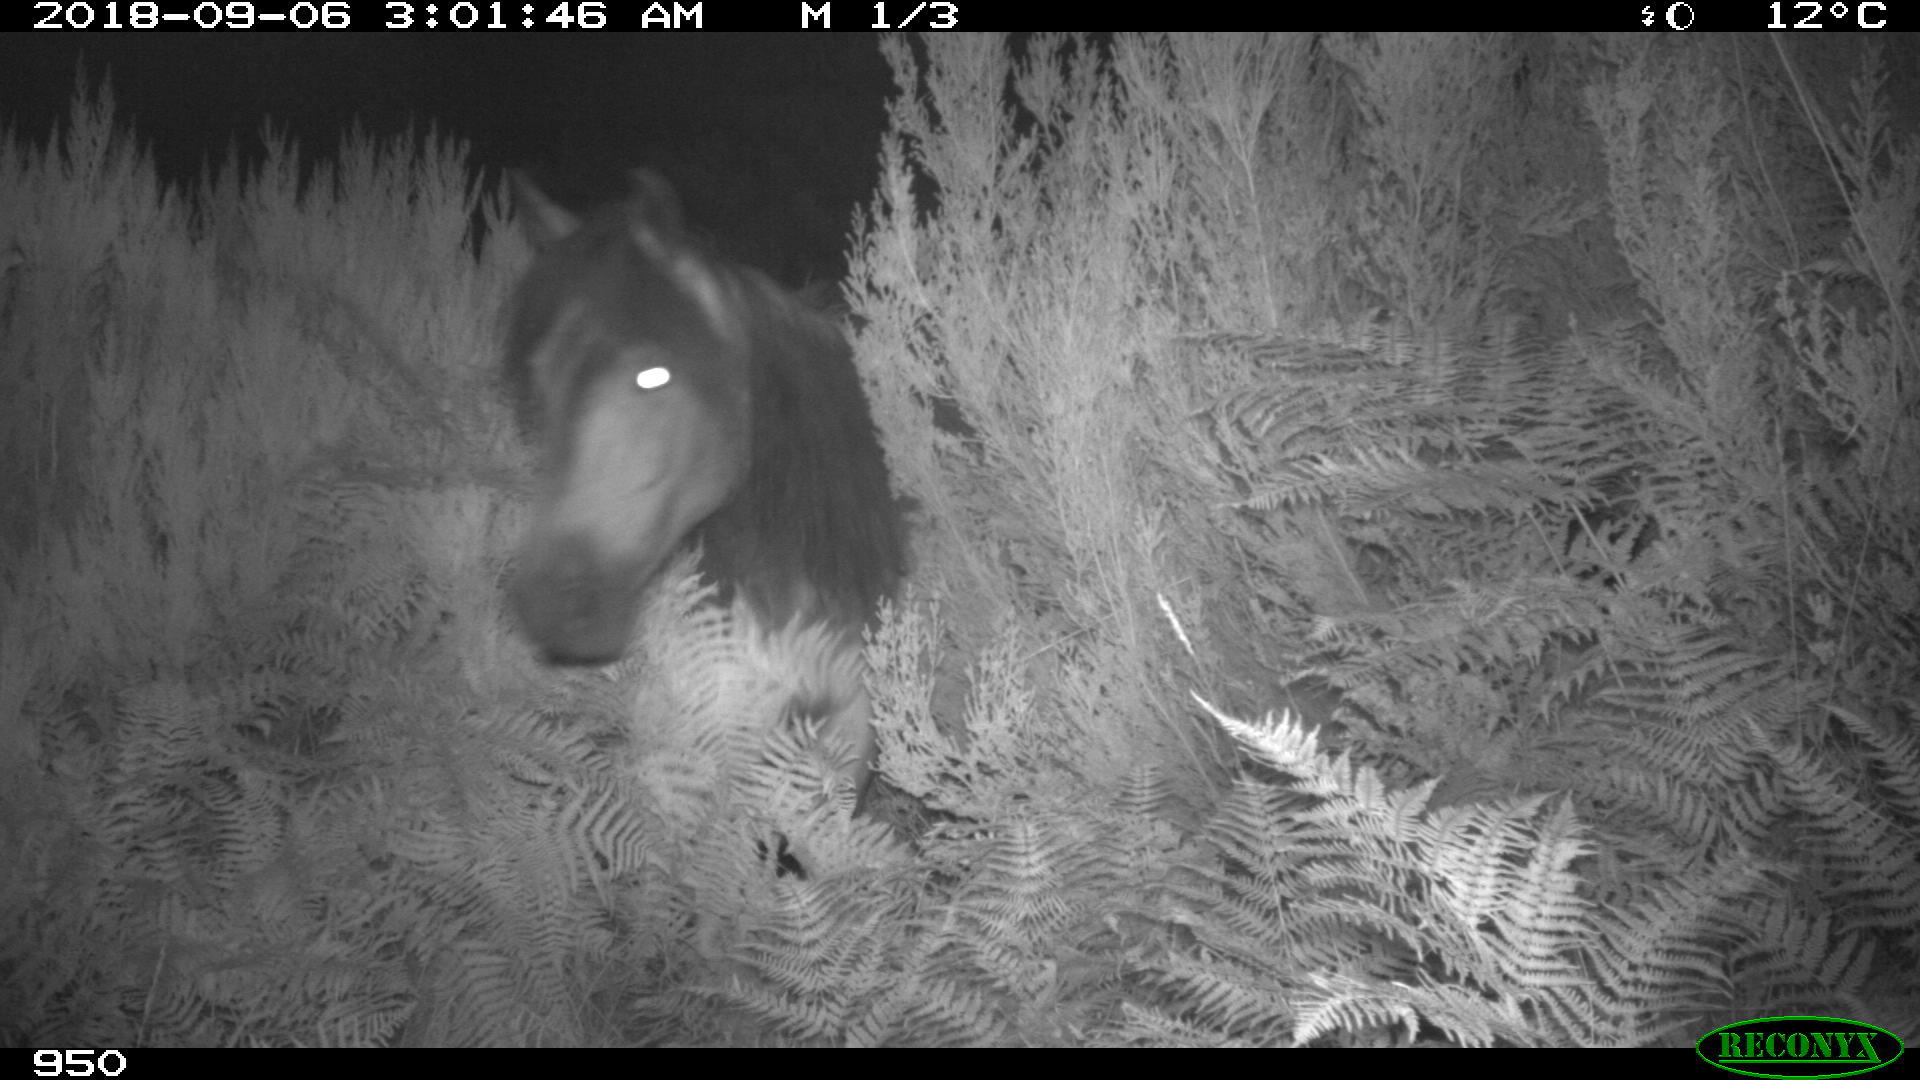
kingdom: Animalia
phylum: Chordata
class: Mammalia
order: Perissodactyla
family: Equidae
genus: Equus
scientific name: Equus caballus
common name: Horse
